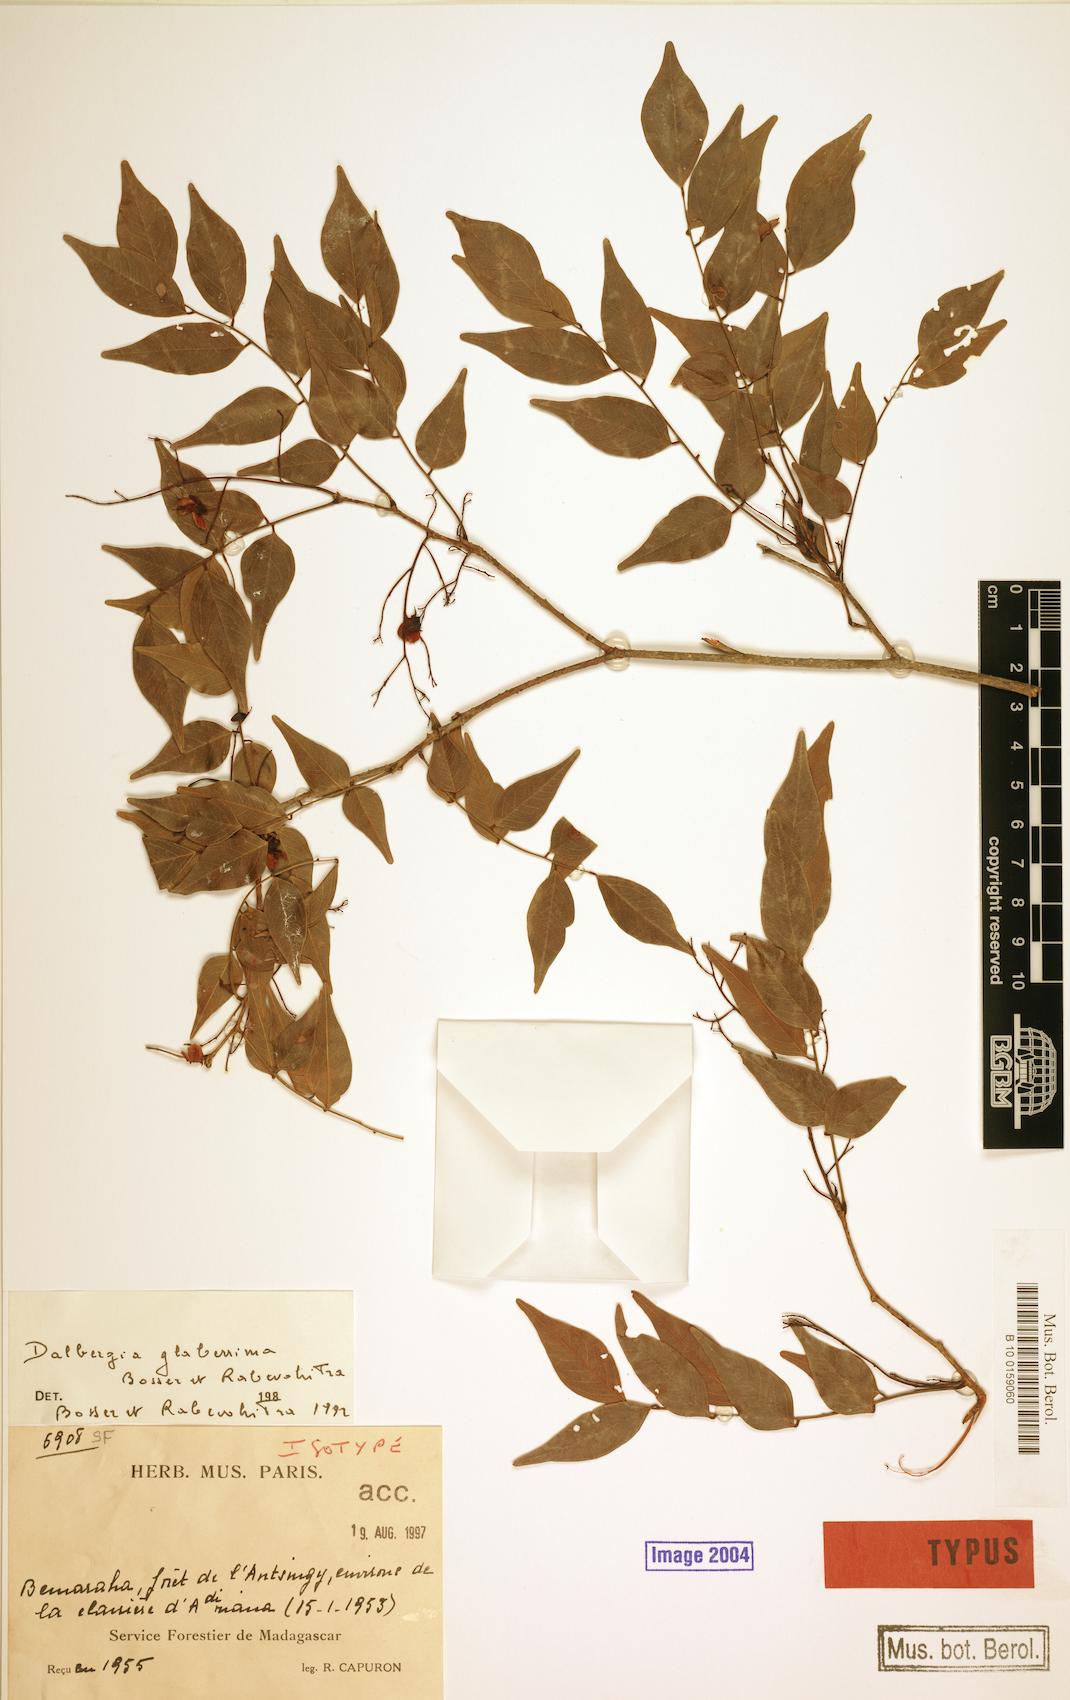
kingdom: Plantae
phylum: Tracheophyta
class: Magnoliopsida
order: Fabales
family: Fabaceae
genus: Dalbergia
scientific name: Dalbergia glaberrima
